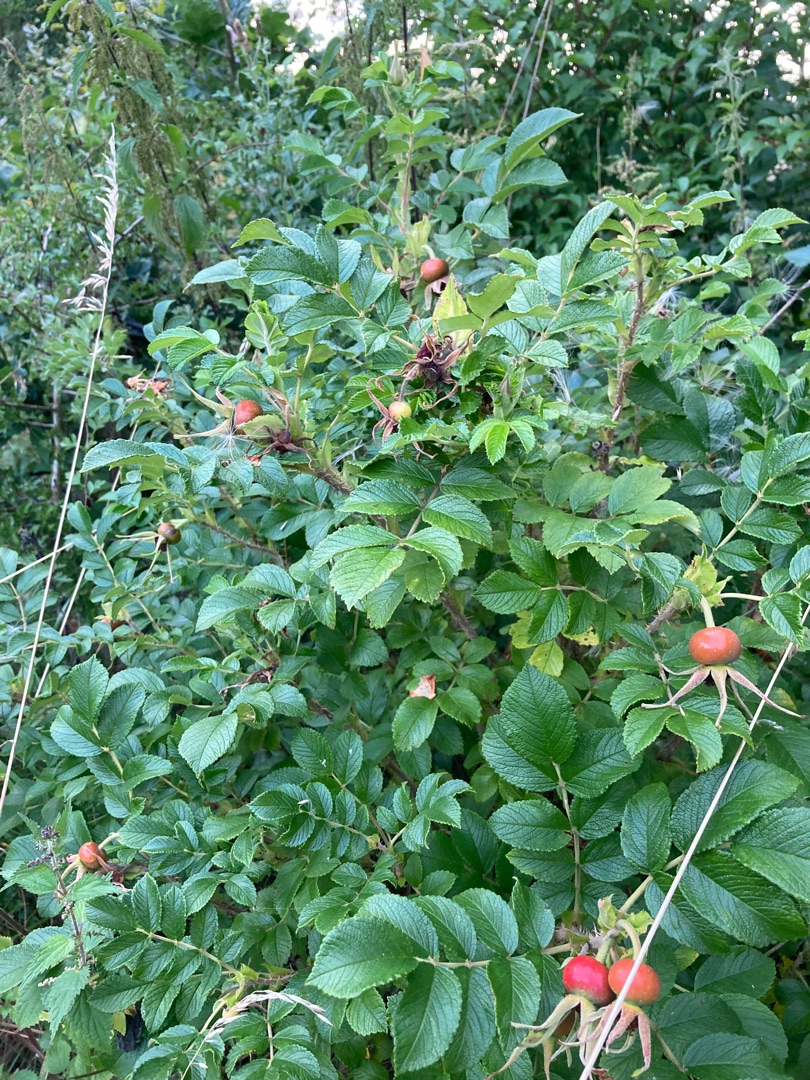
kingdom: Plantae
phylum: Tracheophyta
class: Magnoliopsida
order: Rosales
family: Rosaceae
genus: Rosa
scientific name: Rosa rugosa
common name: Rynket rose
